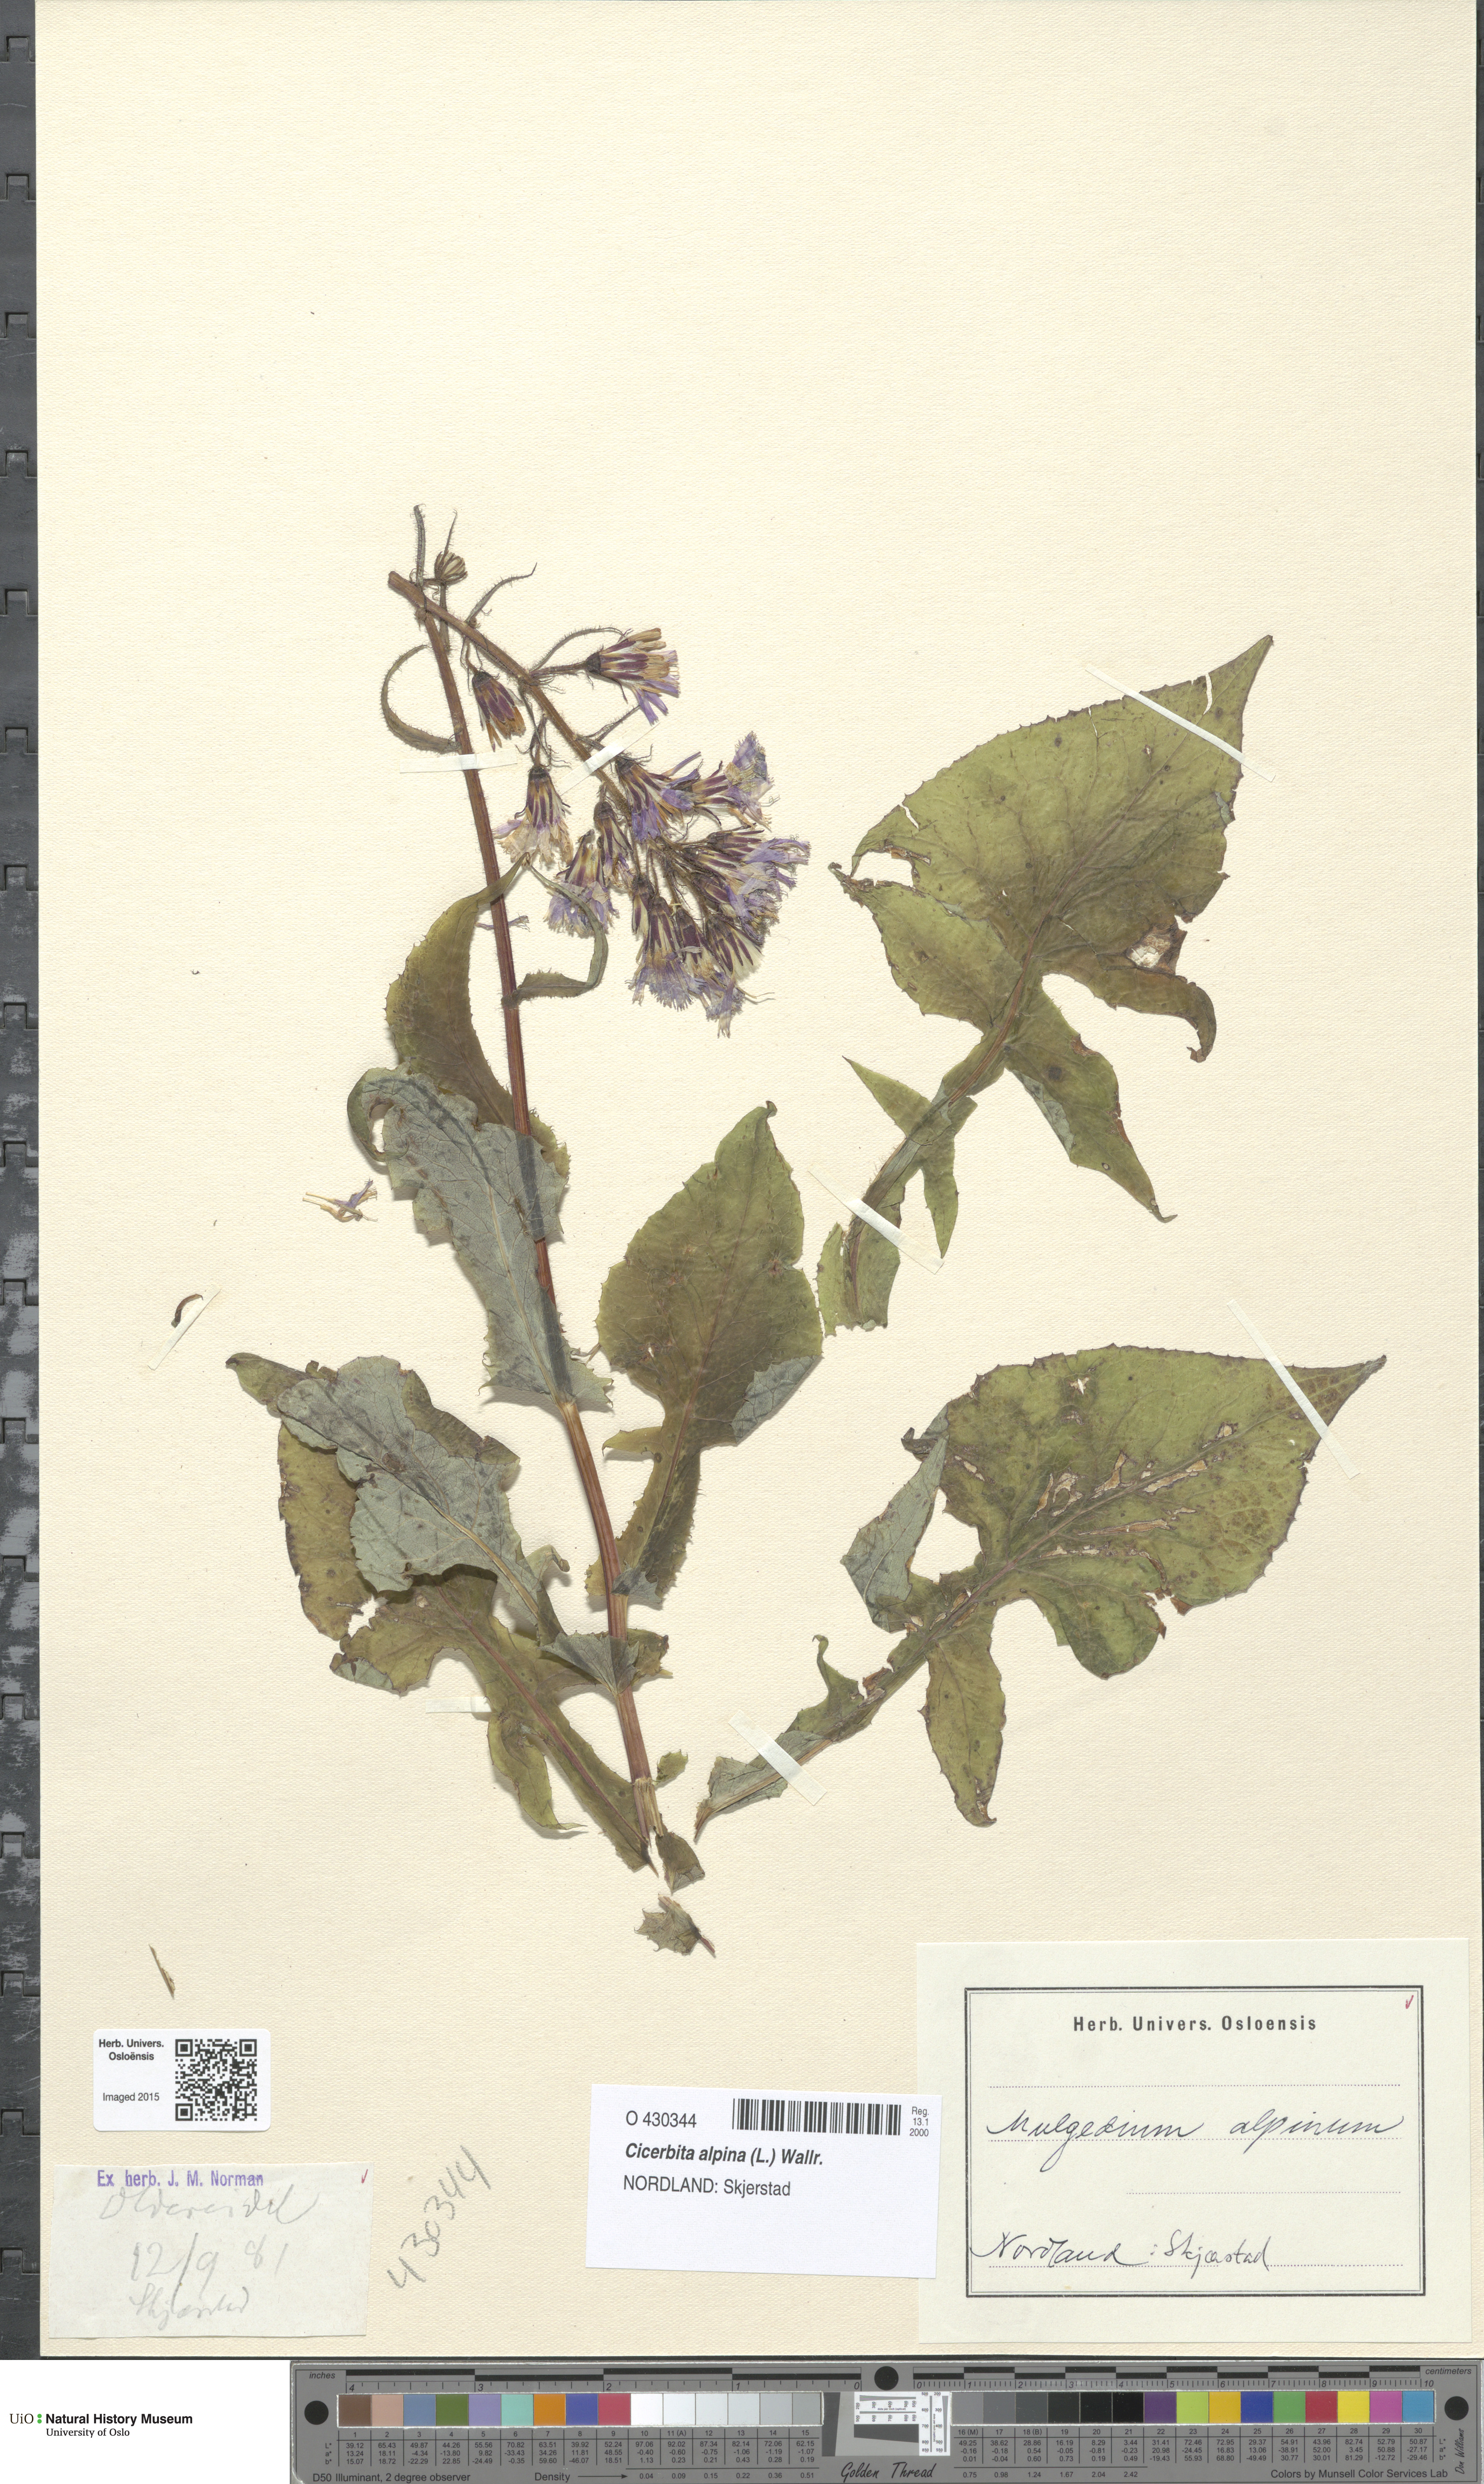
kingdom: Plantae
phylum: Tracheophyta
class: Magnoliopsida
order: Asterales
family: Asteraceae
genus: Cicerbita
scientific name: Cicerbita alpina
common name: Alpine blue-sow-thistle
